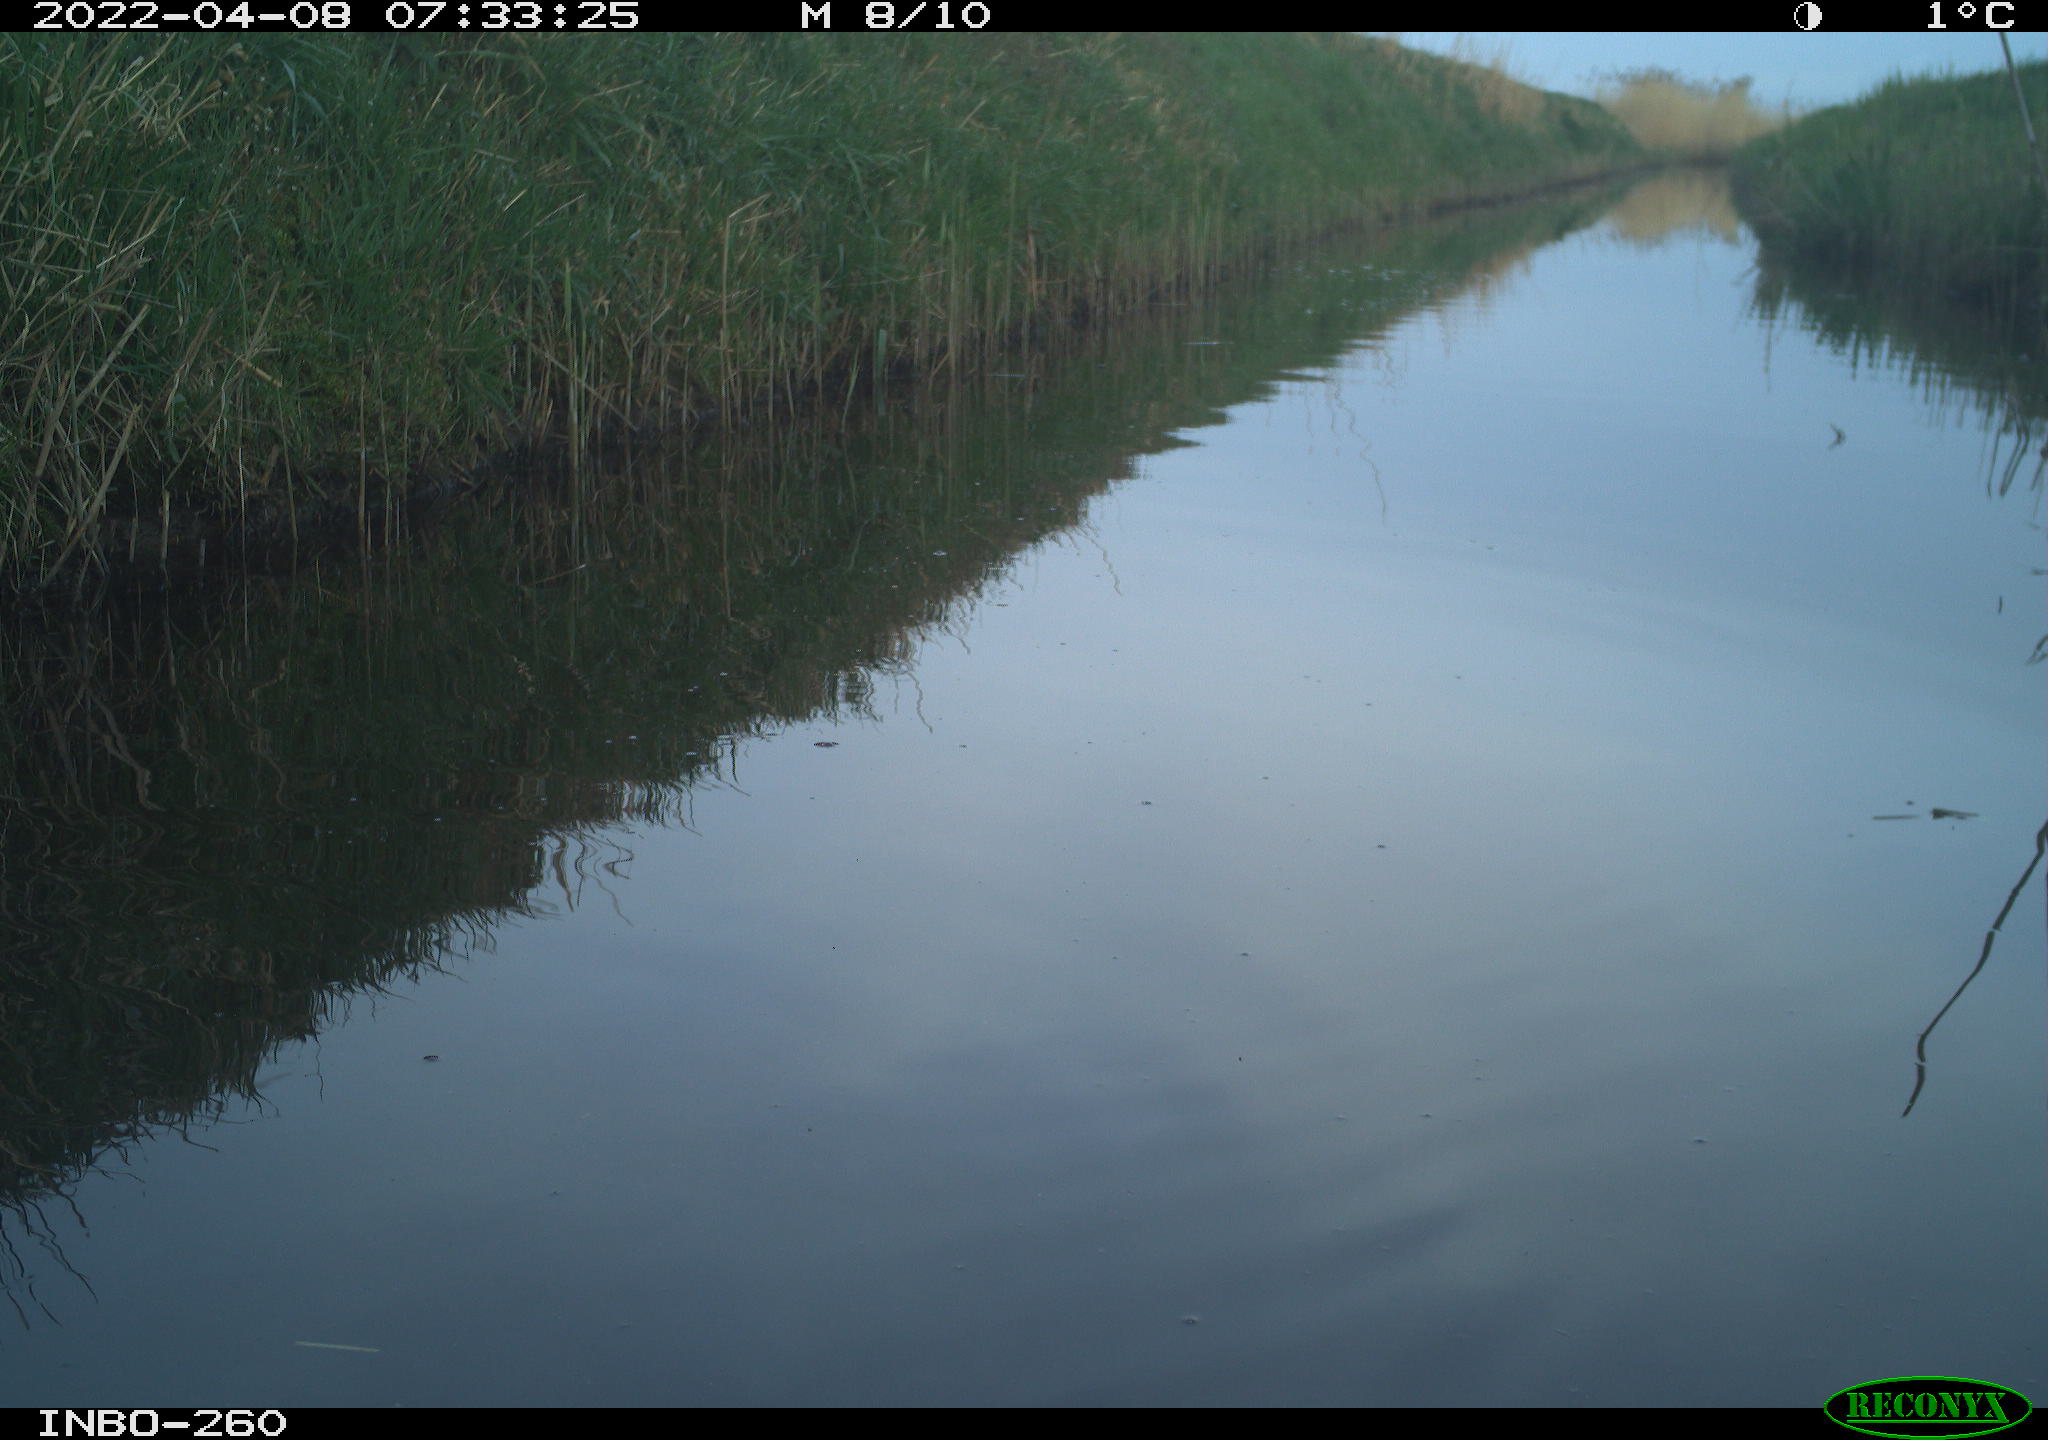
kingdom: Animalia
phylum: Chordata
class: Aves
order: Gruiformes
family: Rallidae
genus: Fulica
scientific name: Fulica atra
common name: Eurasian coot
